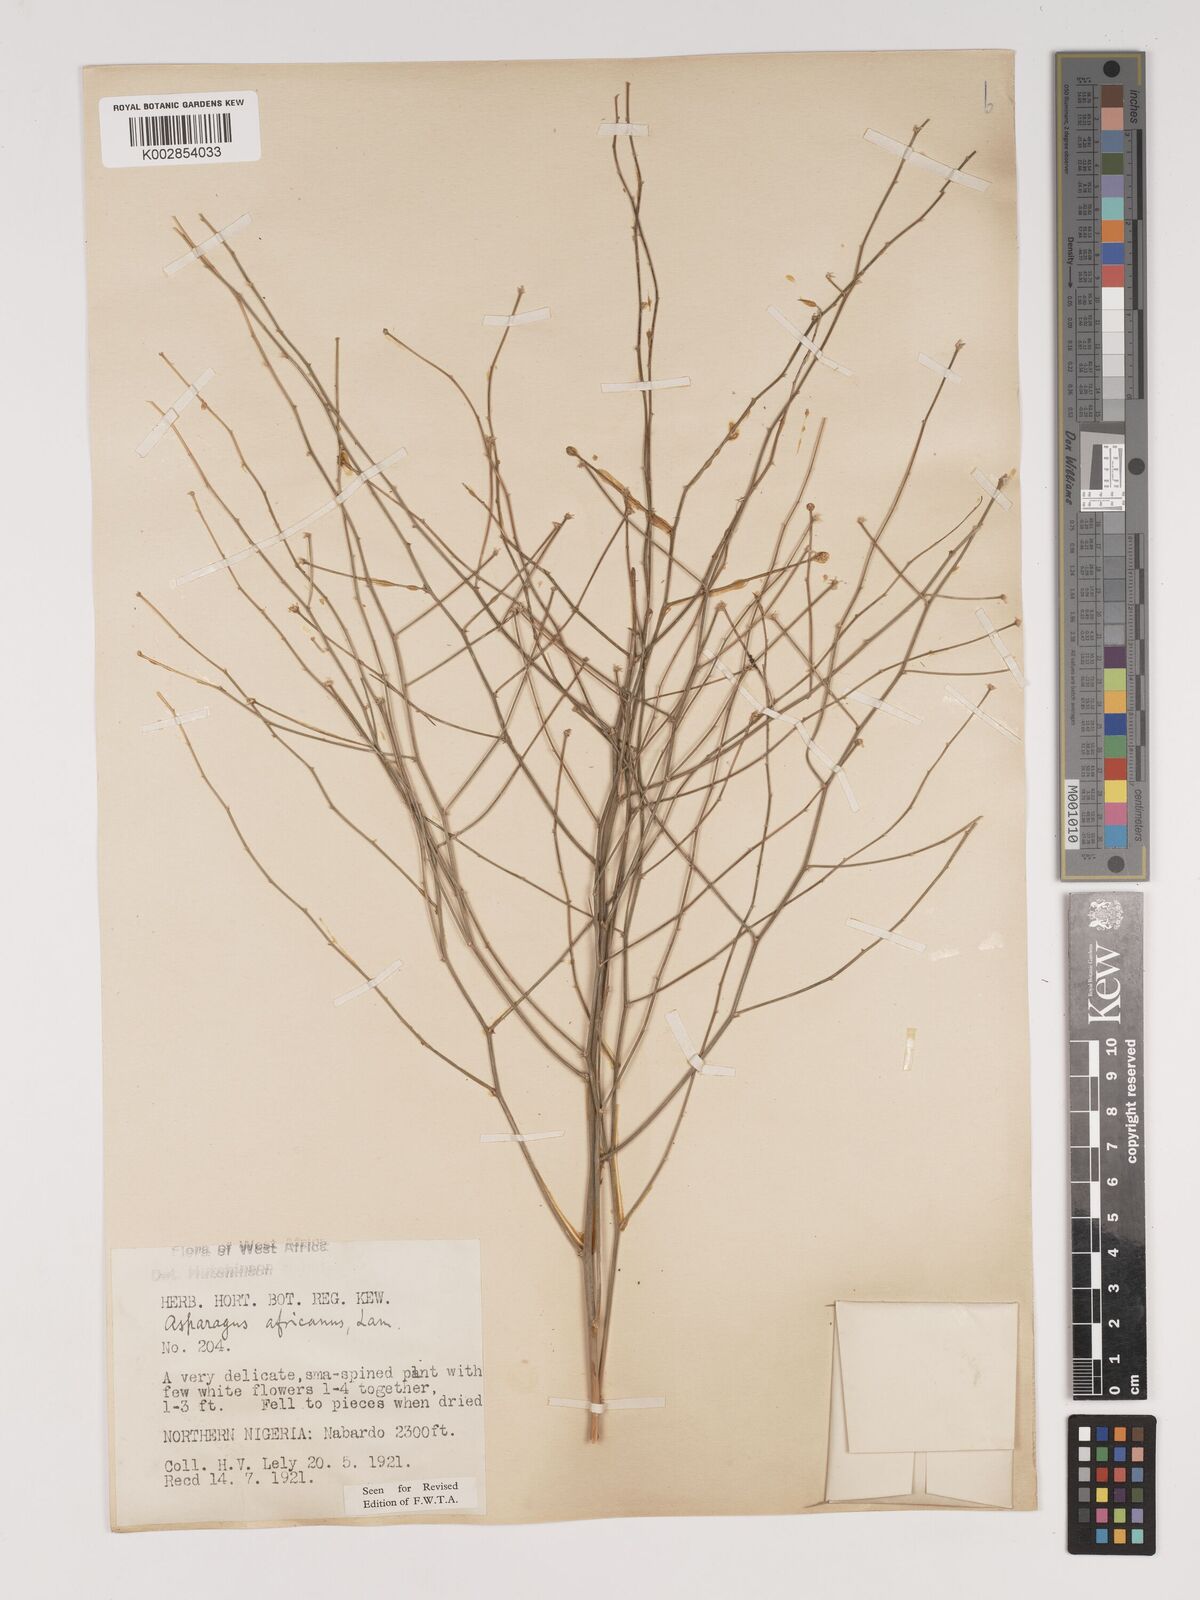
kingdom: Plantae
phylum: Tracheophyta
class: Liliopsida
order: Asparagales
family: Asparagaceae
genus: Asparagus
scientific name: Asparagus
